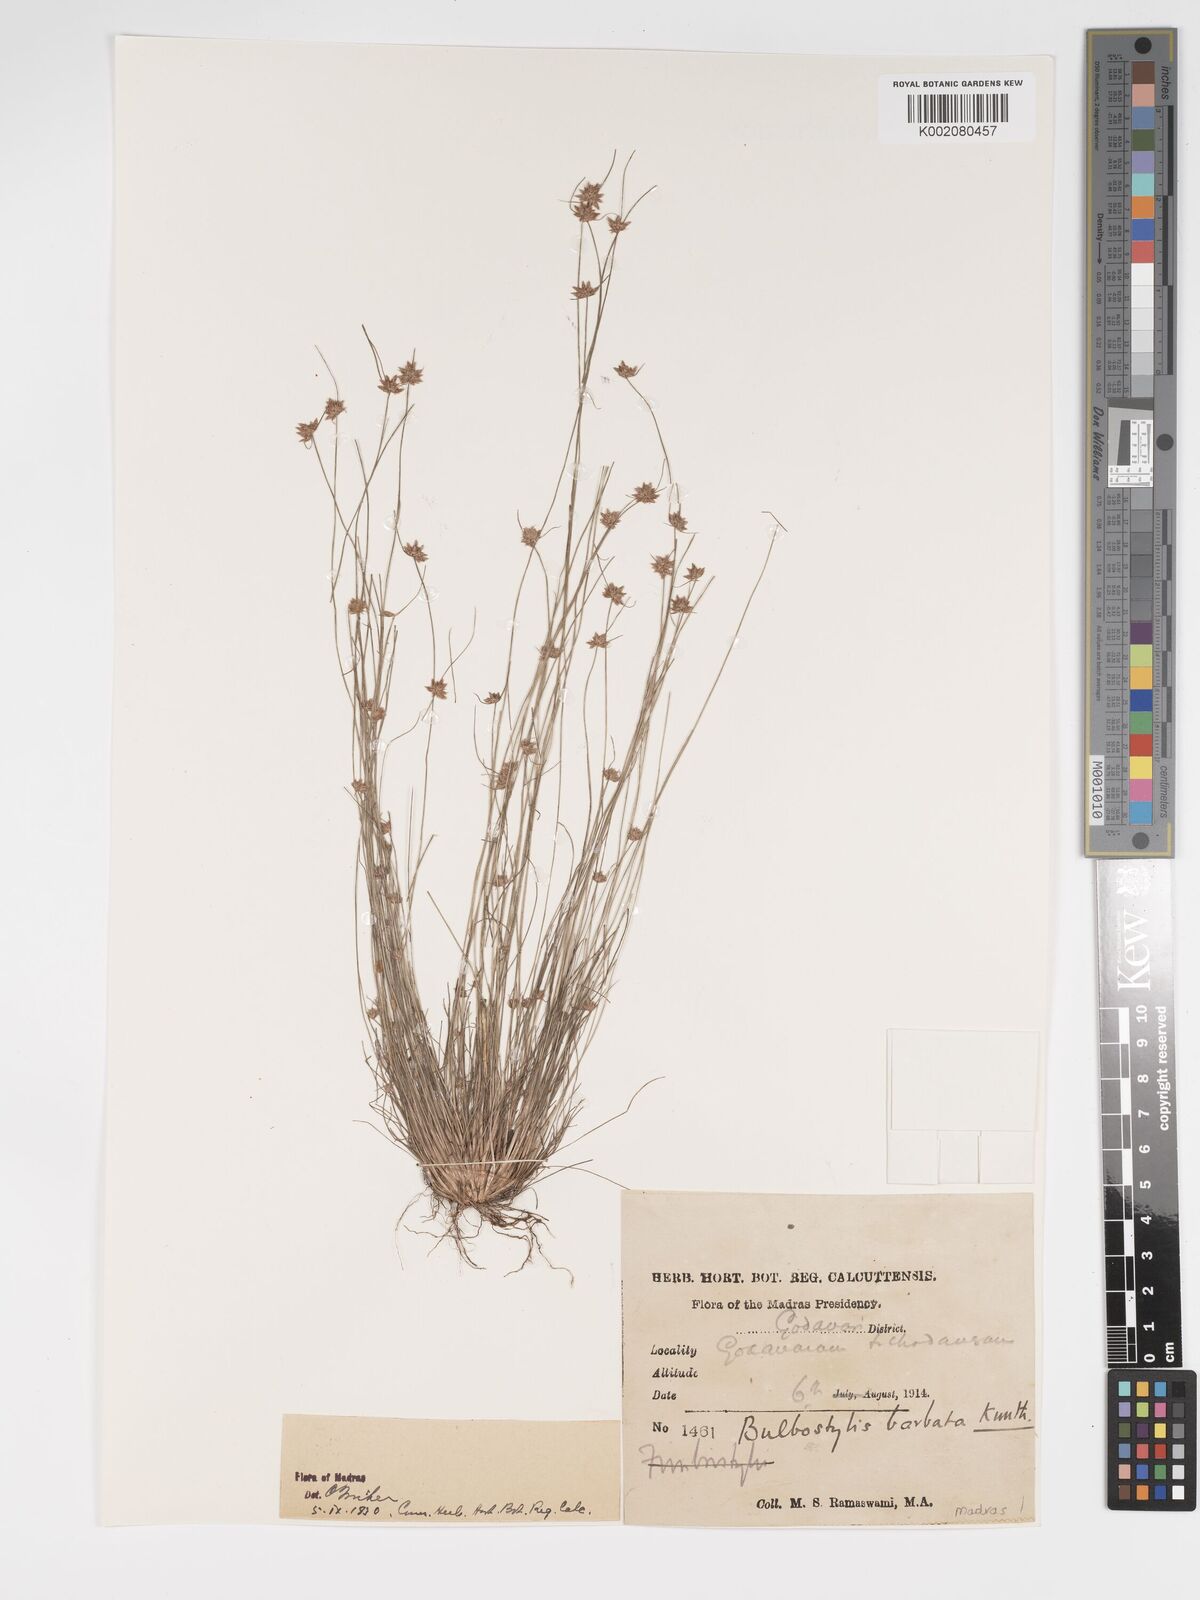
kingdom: Plantae
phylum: Tracheophyta
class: Liliopsida
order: Poales
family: Cyperaceae
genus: Bulbostylis
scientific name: Bulbostylis barbata
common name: Watergrass
